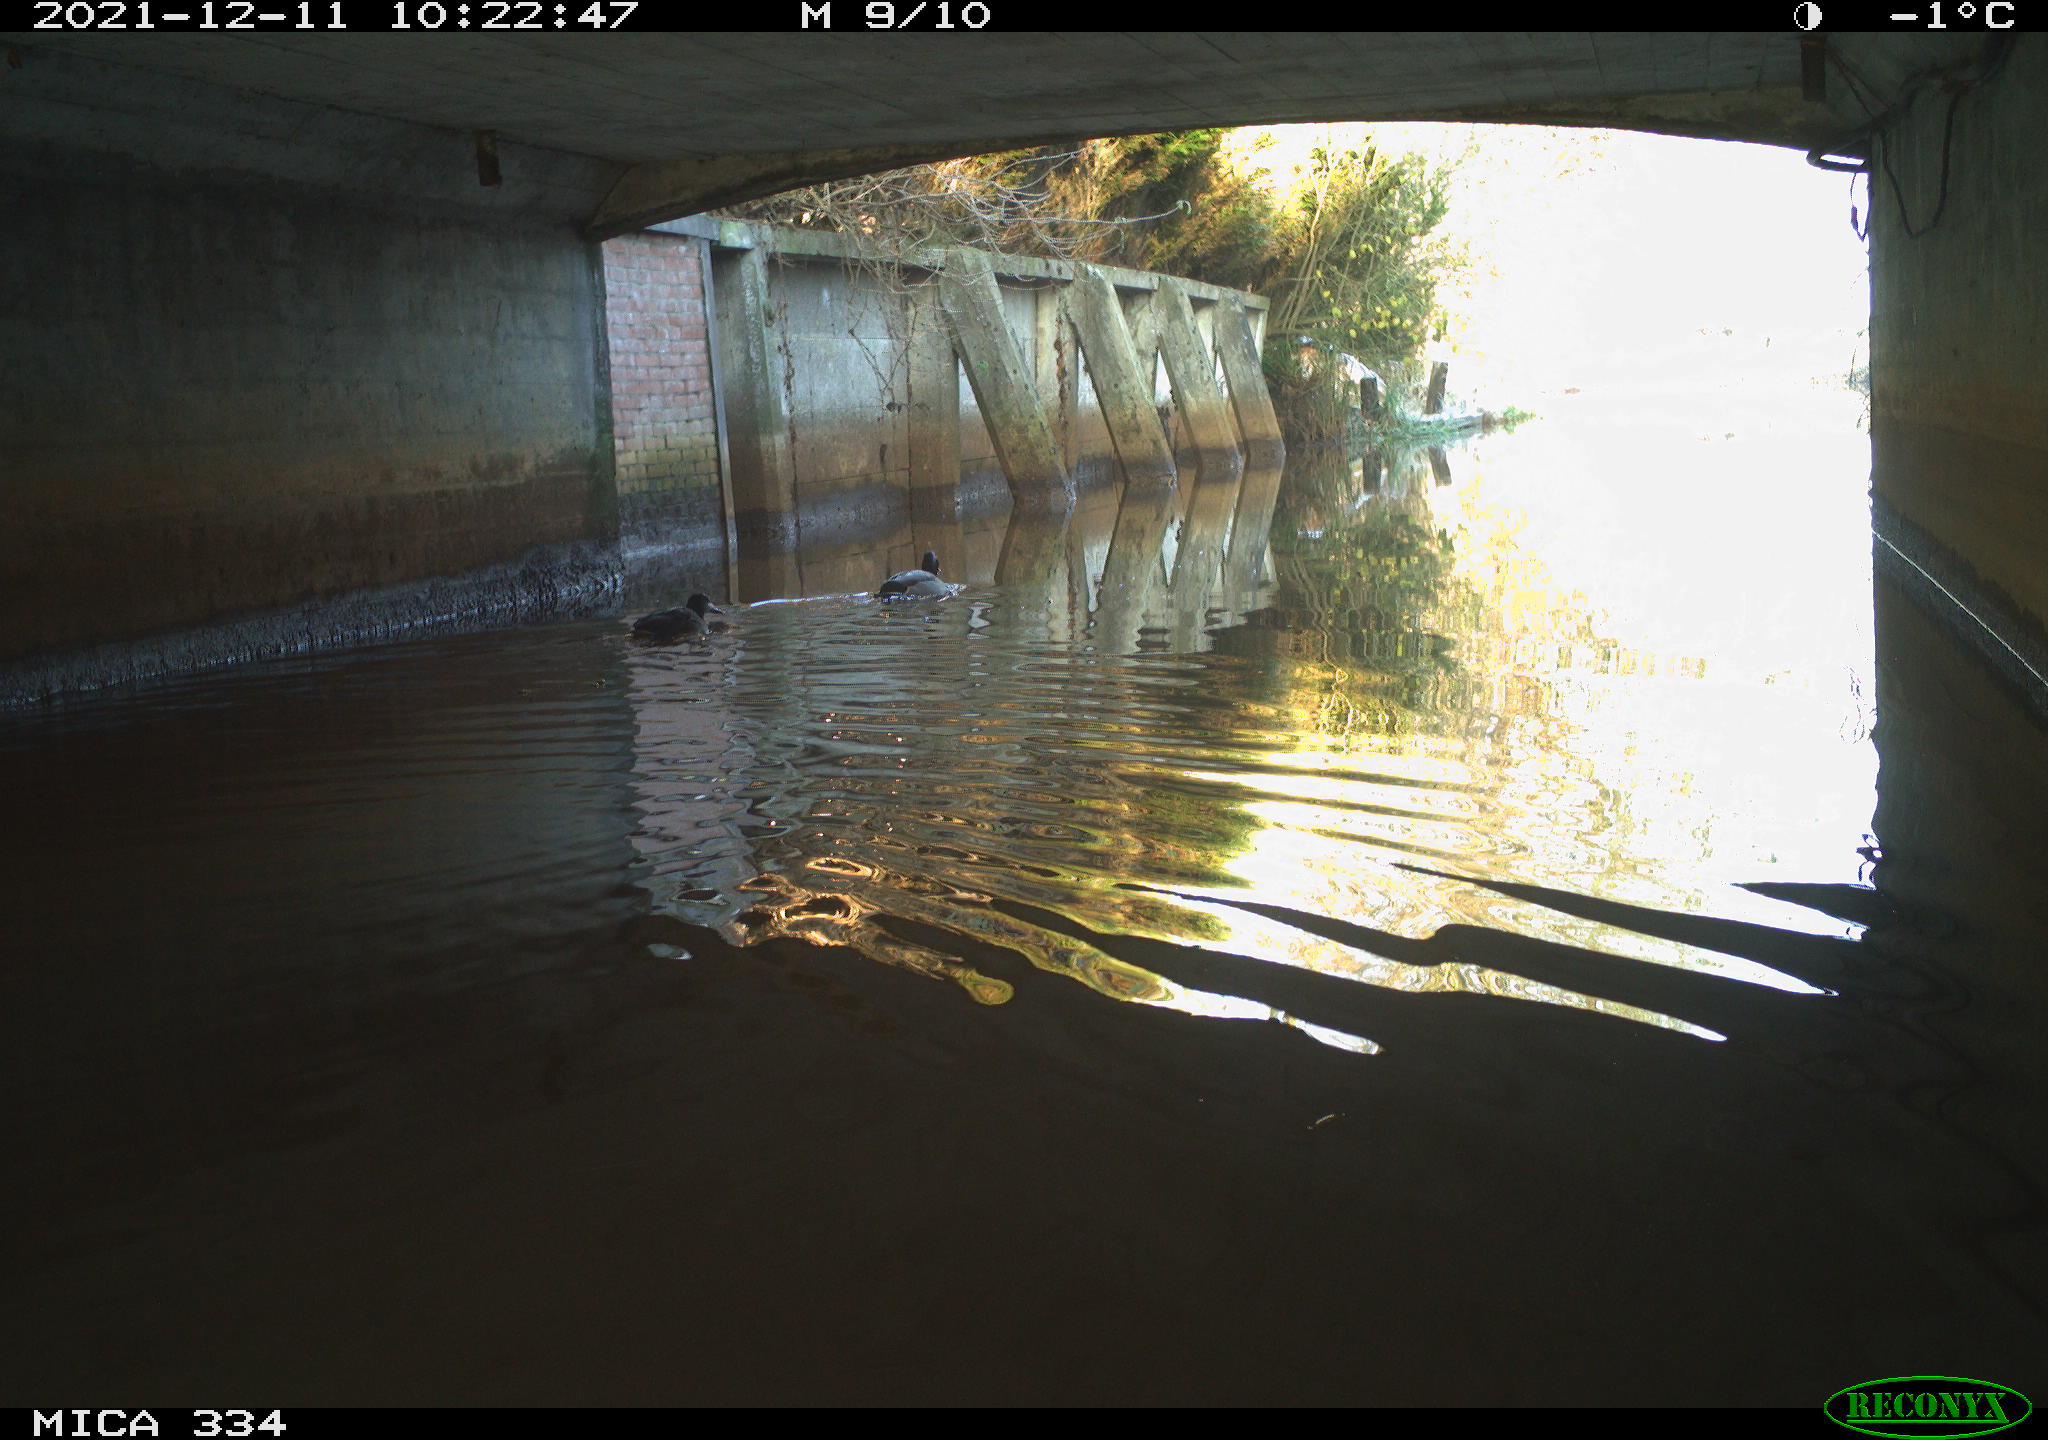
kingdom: Animalia
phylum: Chordata
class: Aves
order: Anseriformes
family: Anatidae
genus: Anas
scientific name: Anas platyrhynchos
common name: Mallard
